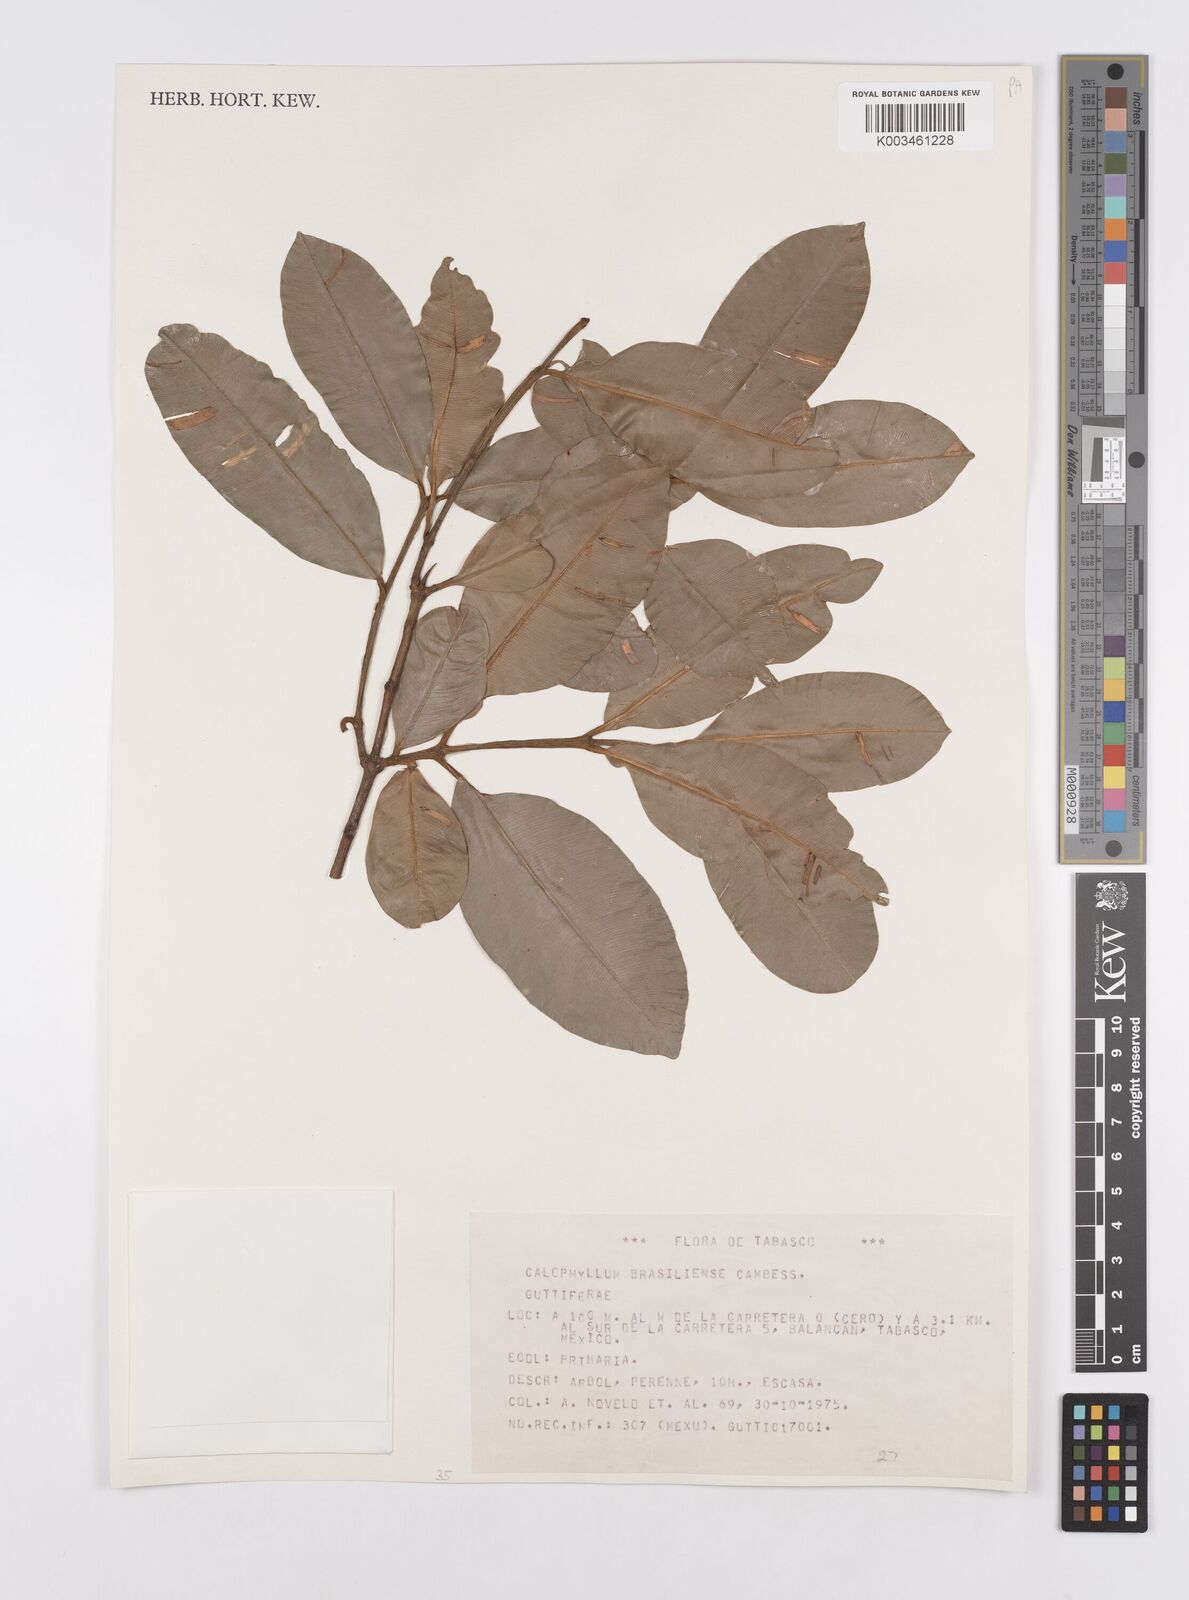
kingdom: Plantae
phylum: Tracheophyta
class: Magnoliopsida
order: Malpighiales
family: Calophyllaceae
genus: Calophyllum
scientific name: Calophyllum brasiliense
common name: Santa maria
